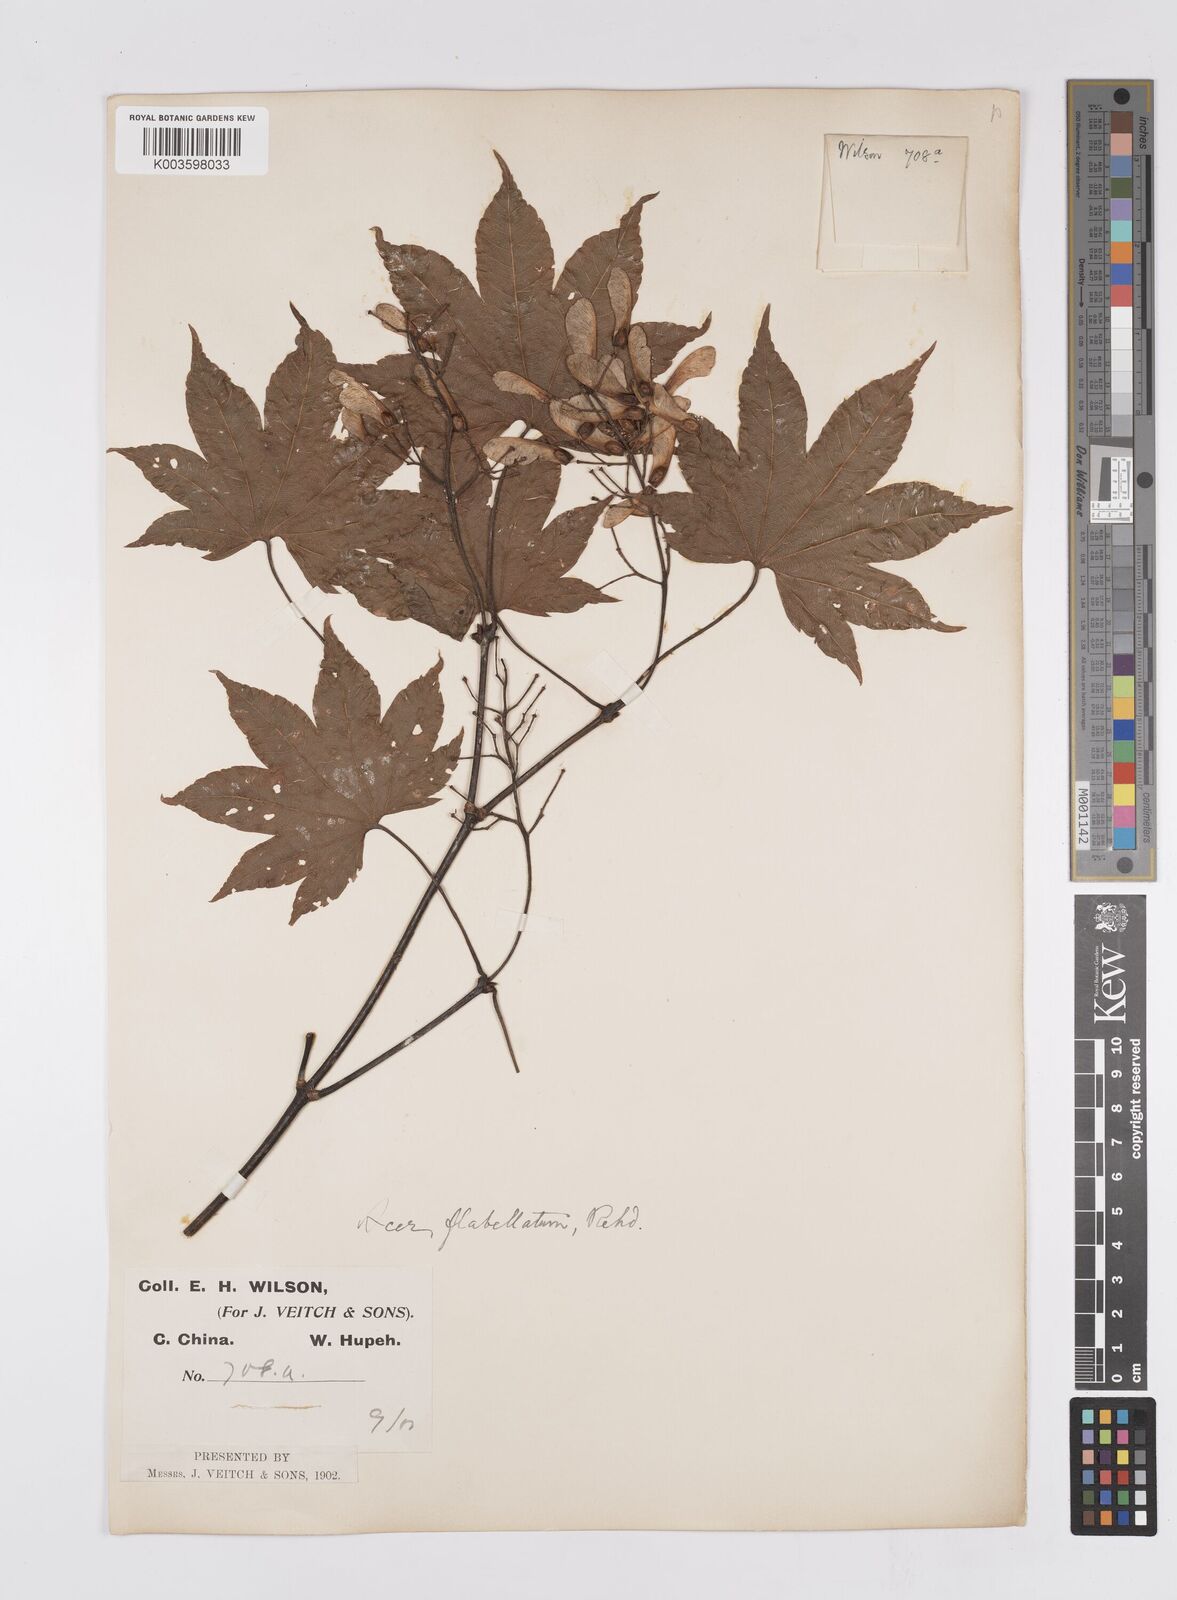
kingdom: Plantae
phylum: Tracheophyta
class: Magnoliopsida
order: Sapindales
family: Sapindaceae
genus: Acer
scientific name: Acer
